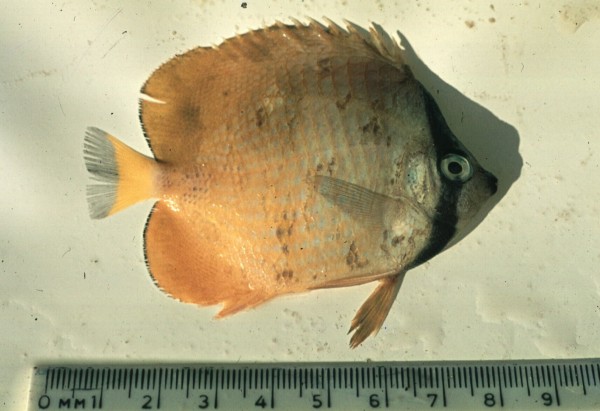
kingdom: Animalia
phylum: Chordata
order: Perciformes
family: Chaetodontidae
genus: Chaetodon
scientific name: Chaetodon kleinii
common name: Klein's butterflyfish
